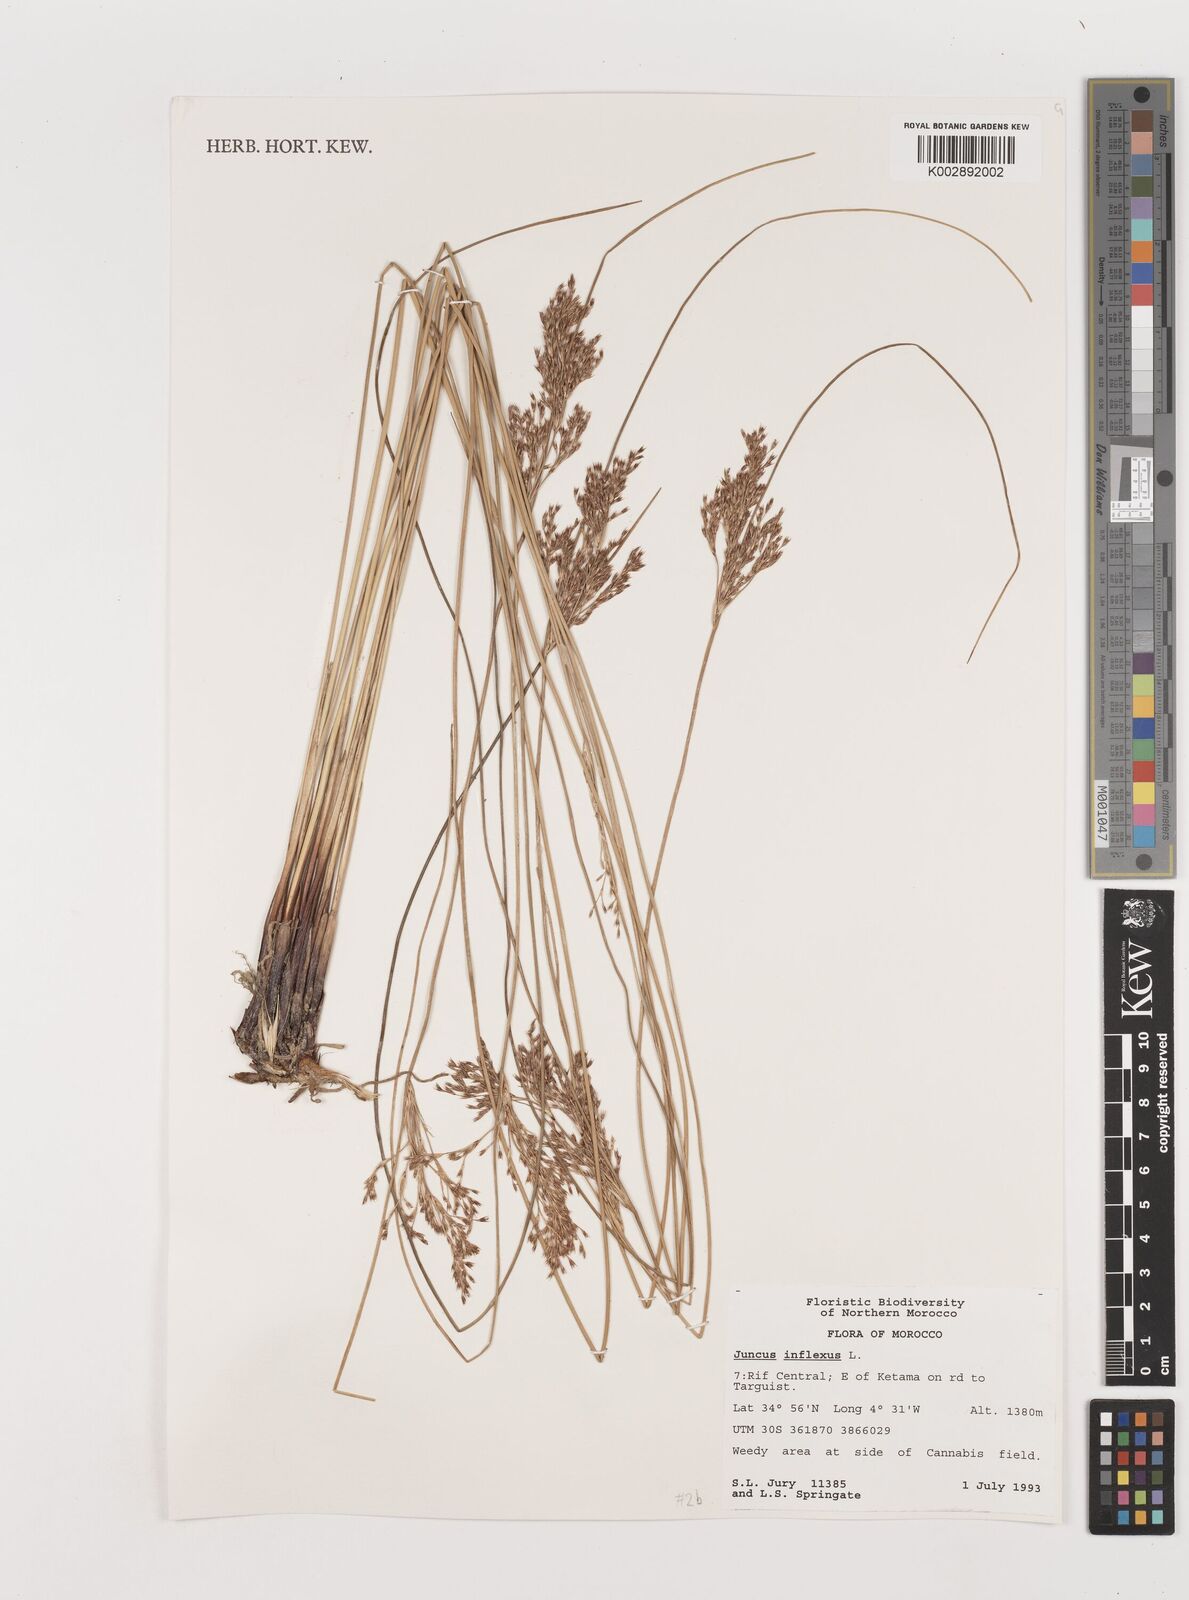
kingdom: Plantae
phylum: Tracheophyta
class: Liliopsida
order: Poales
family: Juncaceae
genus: Juncus
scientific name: Juncus inflexus
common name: Hard rush
